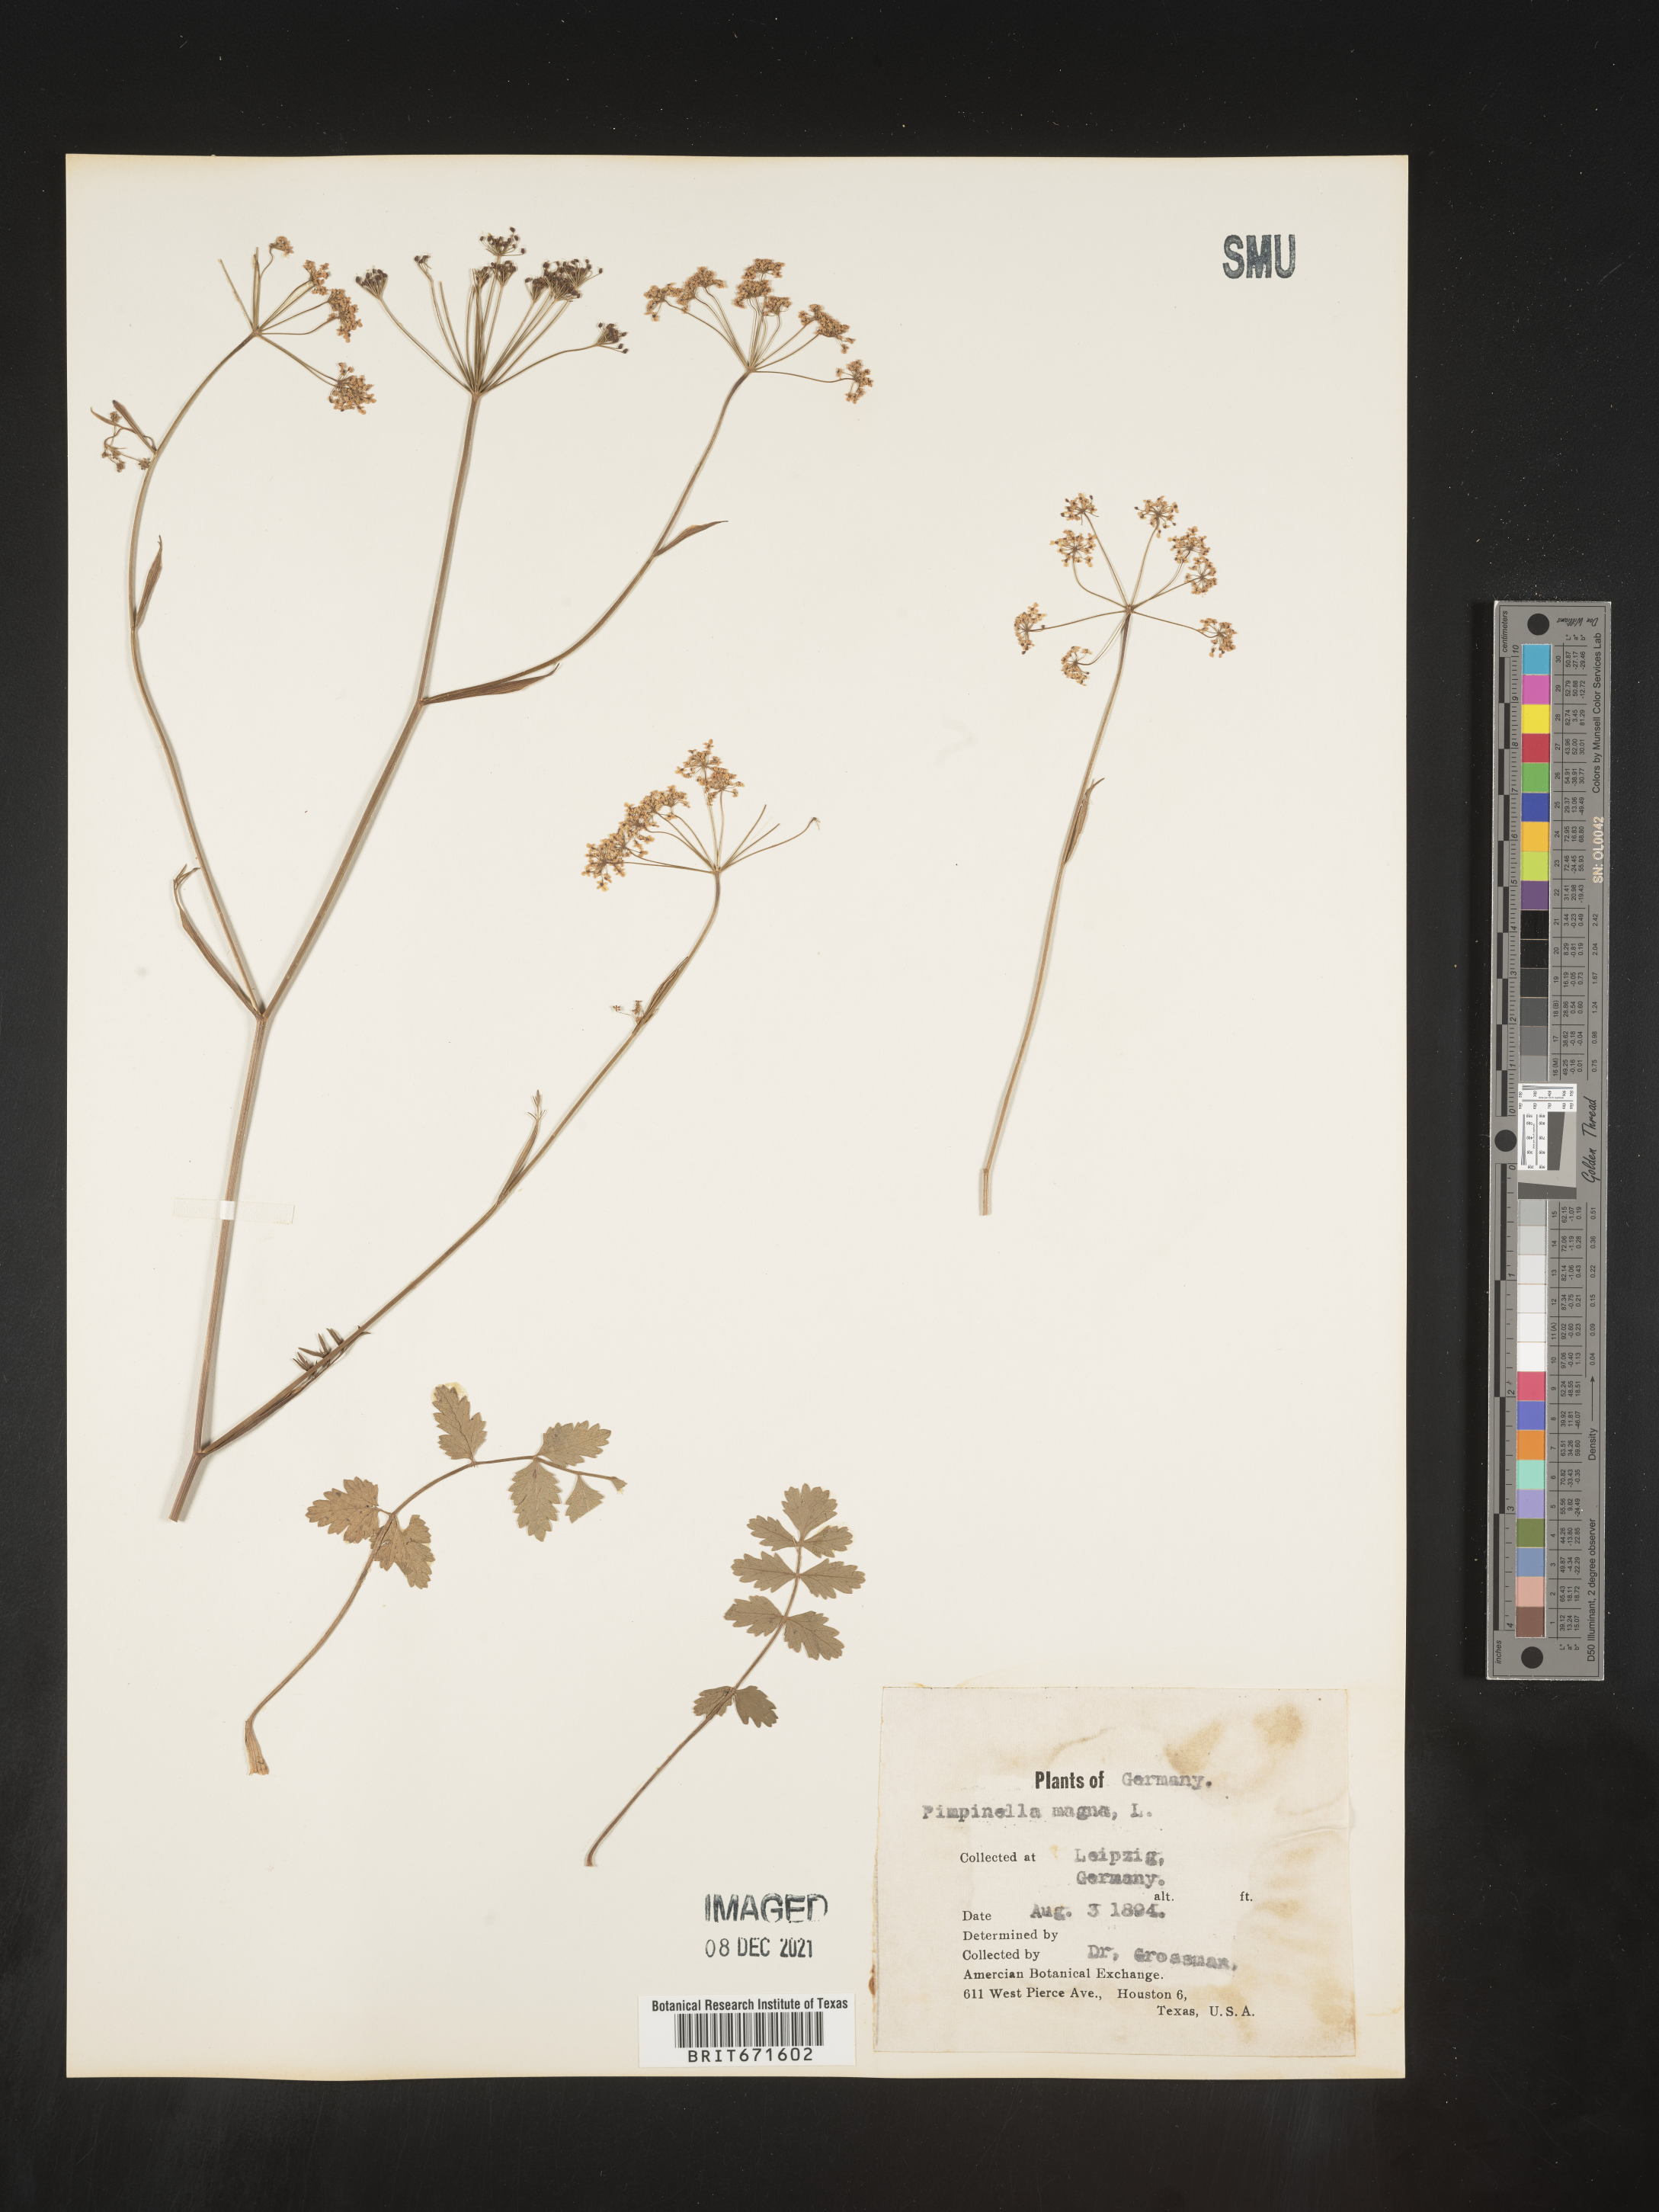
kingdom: Plantae
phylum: Tracheophyta
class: Magnoliopsida
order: Apiales
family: Apiaceae
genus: Pimpinella
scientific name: Pimpinella
